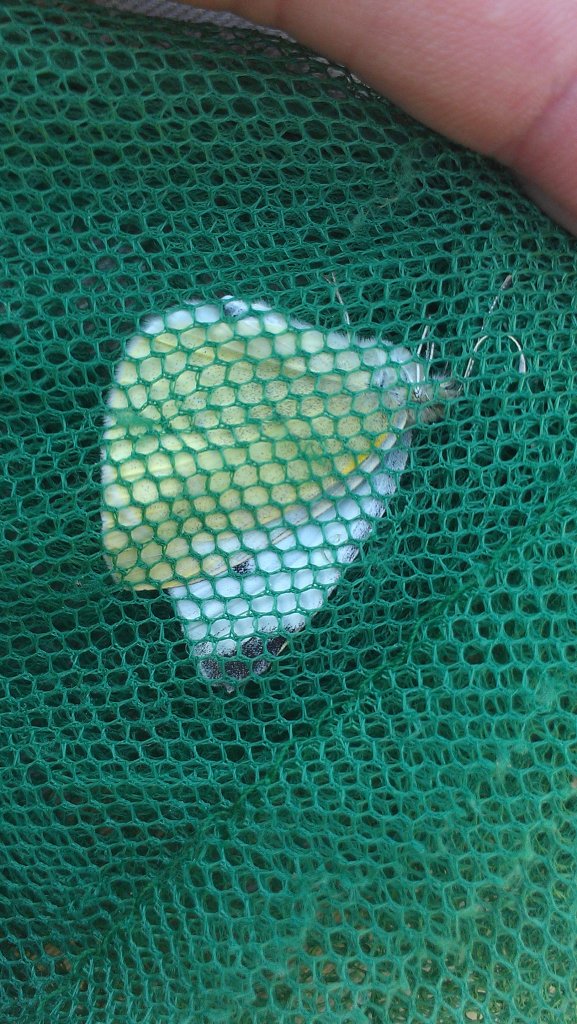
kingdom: Animalia
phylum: Arthropoda
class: Insecta
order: Lepidoptera
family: Pieridae
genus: Pieris
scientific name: Pieris rapae
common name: Cabbage White
